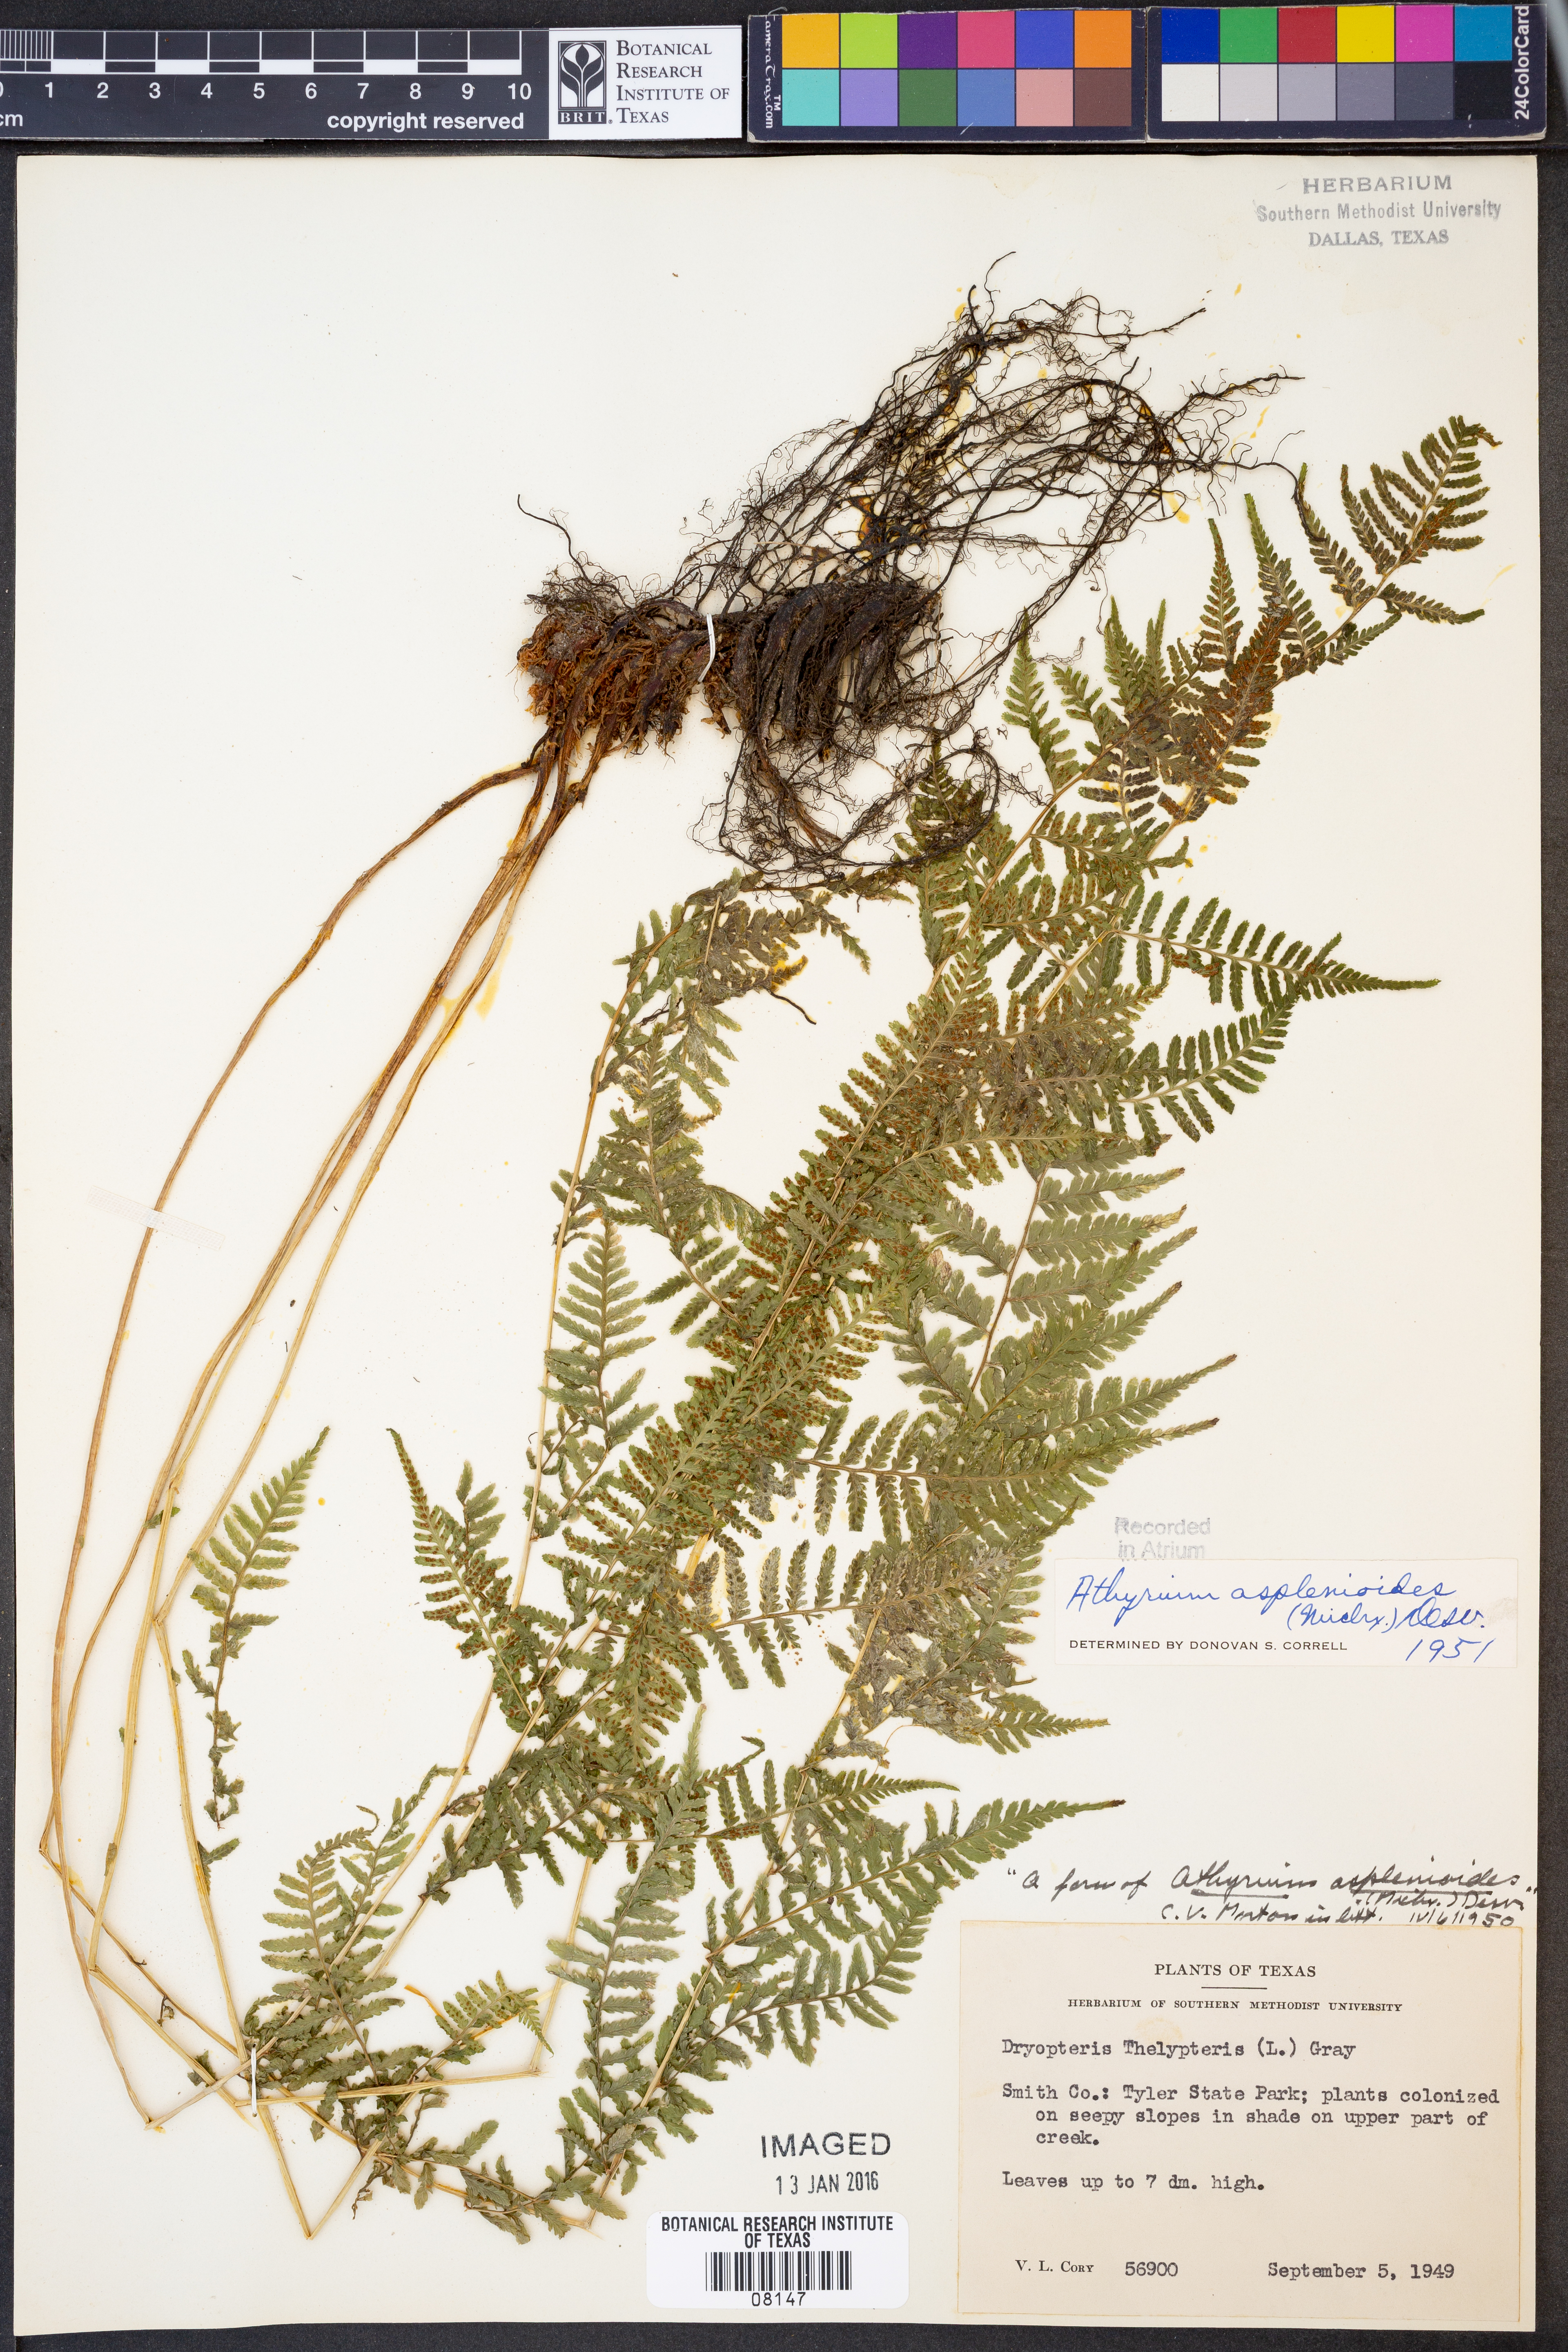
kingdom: Plantae
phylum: Tracheophyta
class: Polypodiopsida
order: Polypodiales
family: Athyriaceae
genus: Athyrium
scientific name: Athyrium asplenioides
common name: Southern lady fern
